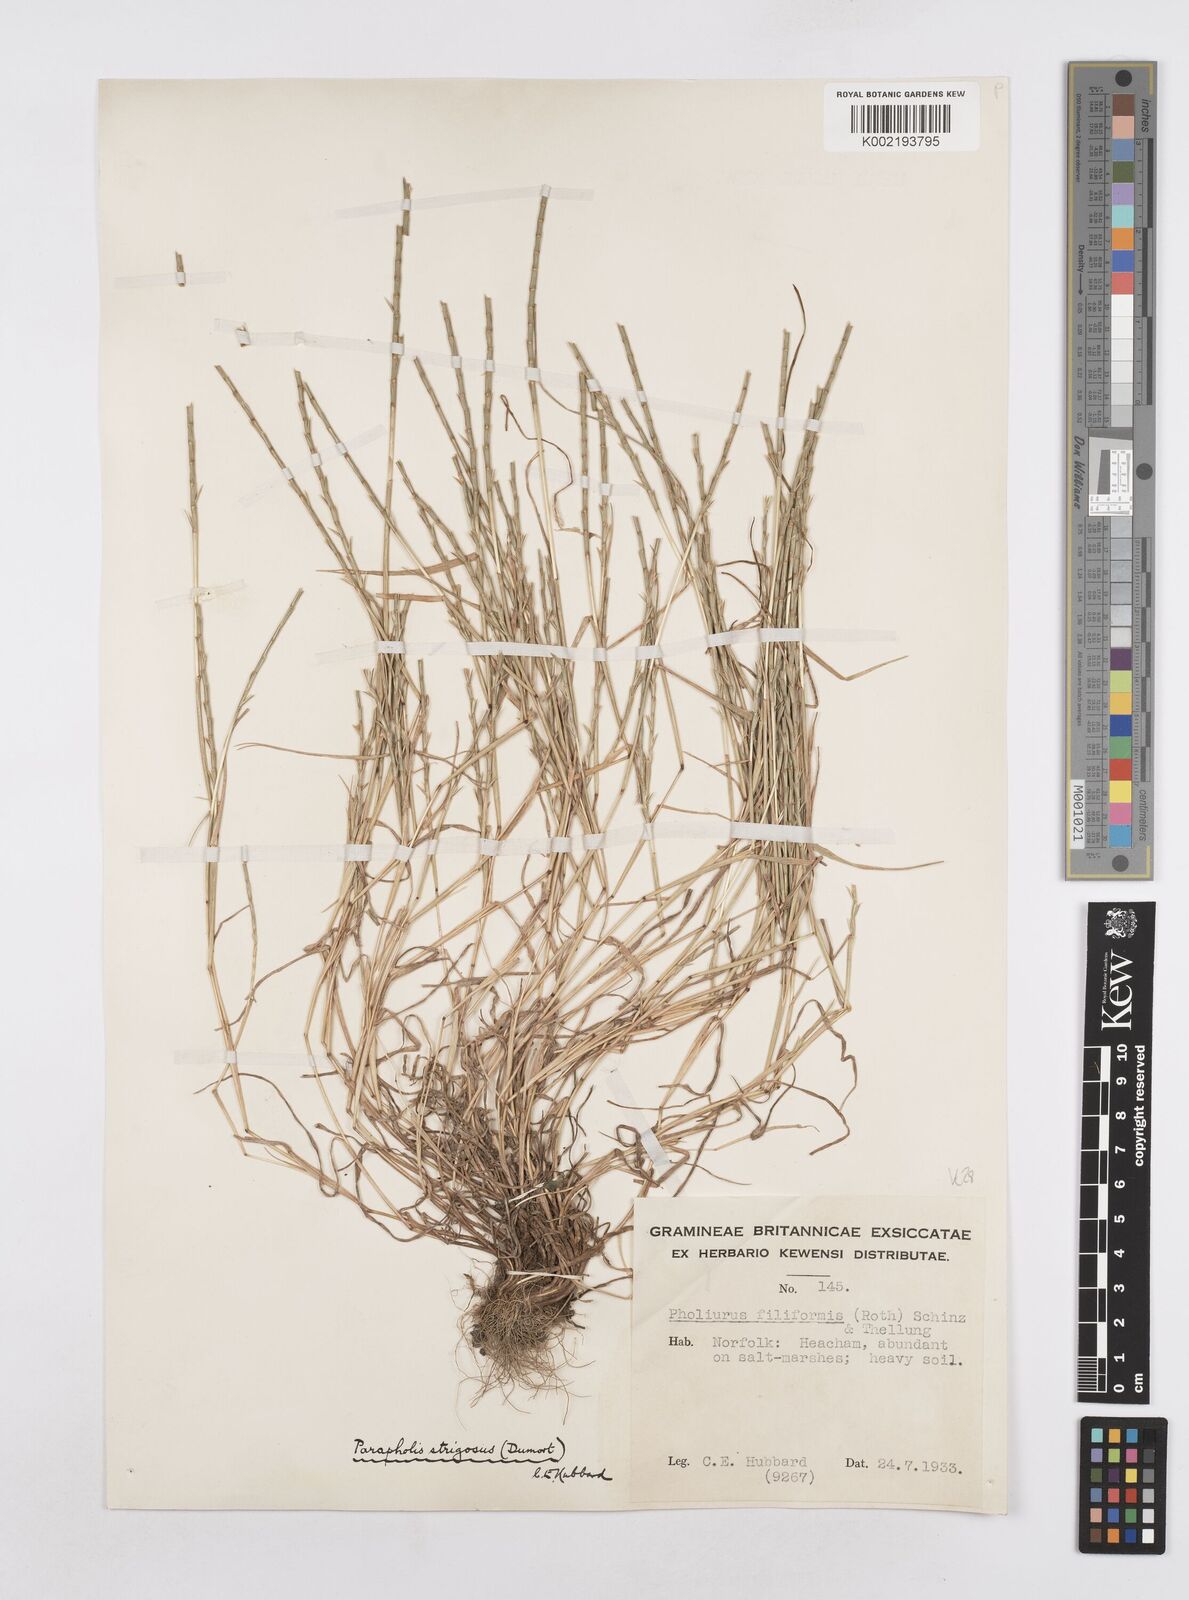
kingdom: Plantae
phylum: Tracheophyta
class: Liliopsida
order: Poales
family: Poaceae
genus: Parapholis
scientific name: Parapholis
